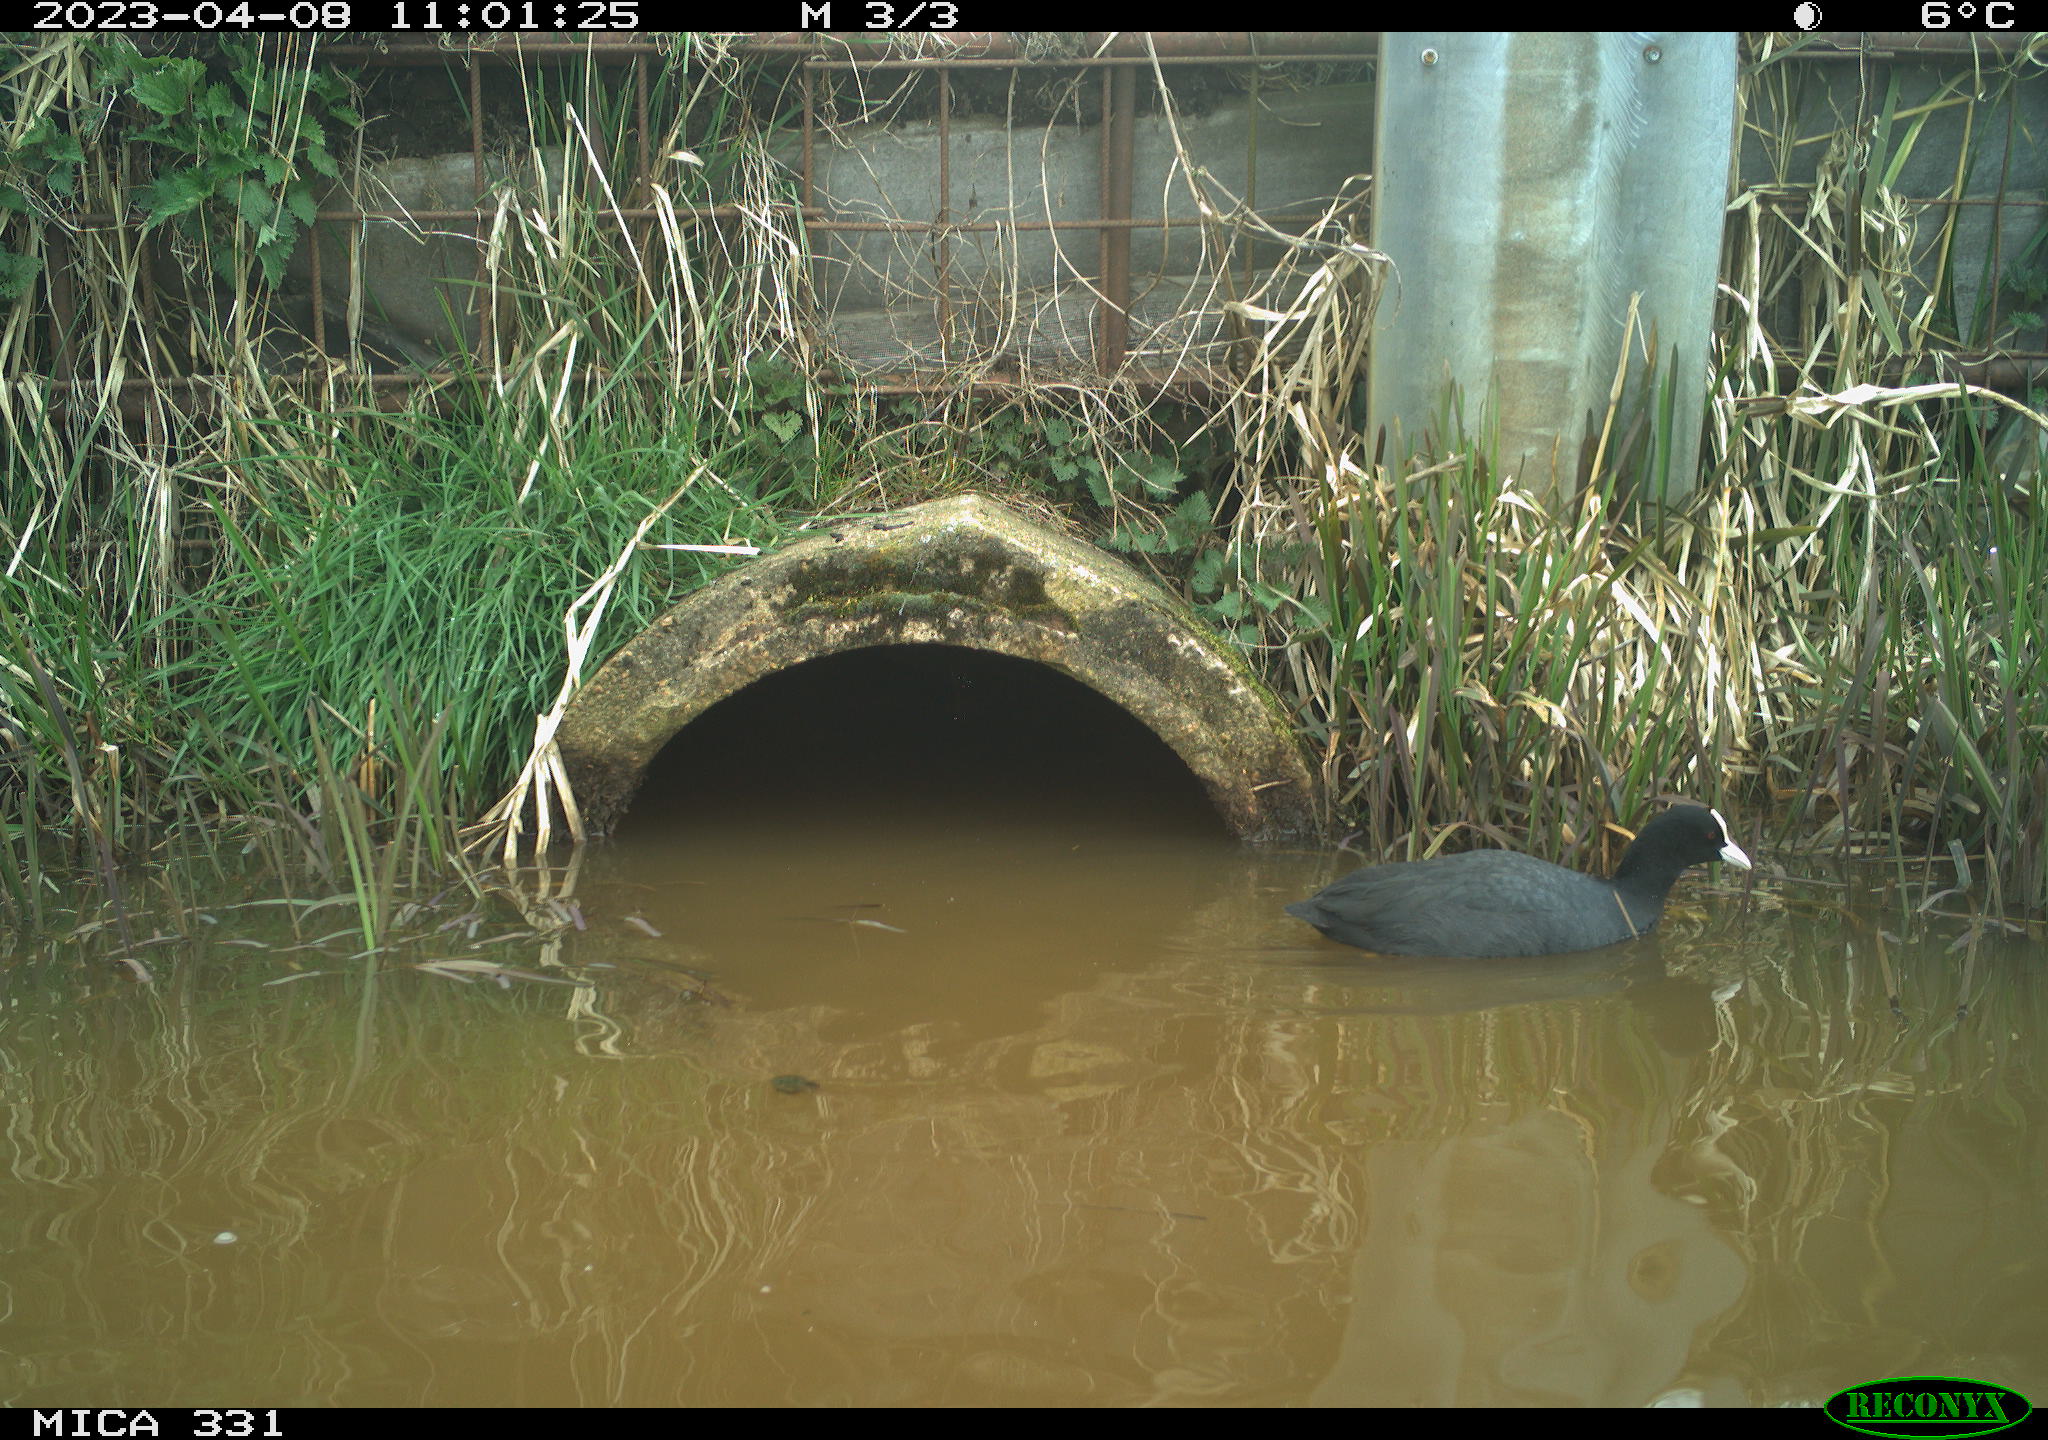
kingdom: Animalia
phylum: Chordata
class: Aves
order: Gruiformes
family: Rallidae
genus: Fulica
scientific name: Fulica atra
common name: Eurasian coot
